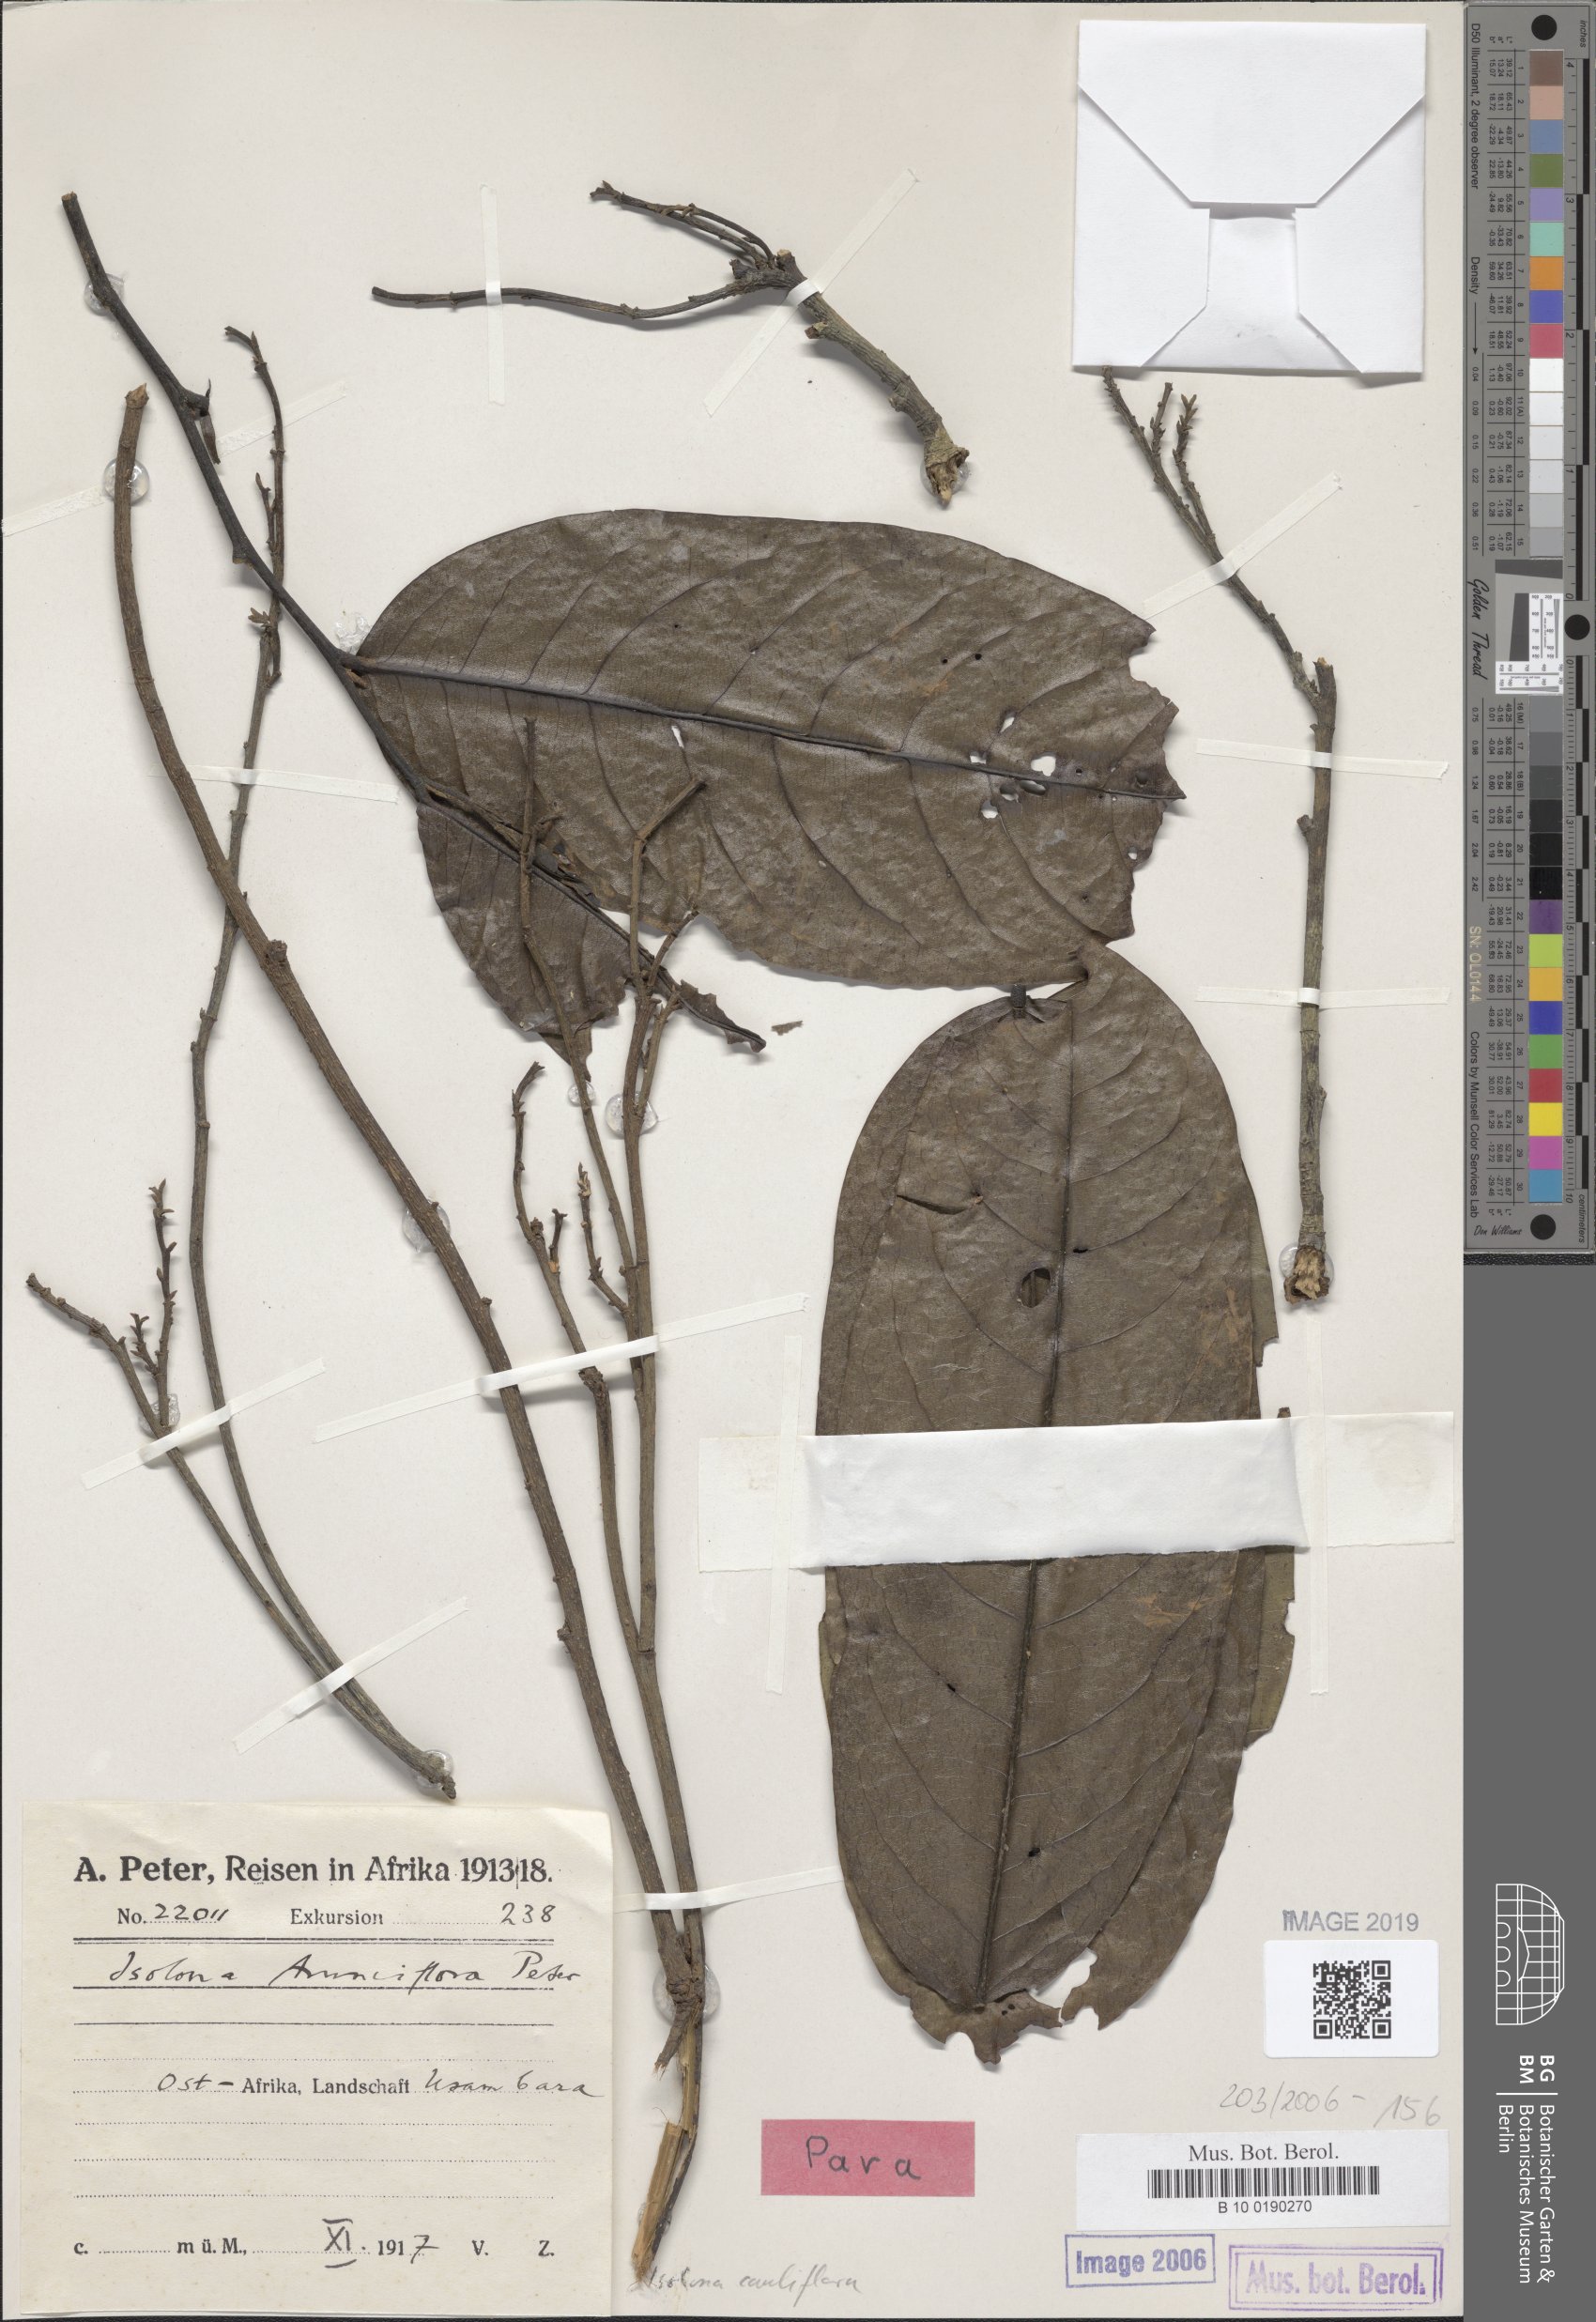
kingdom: Plantae
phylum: Tracheophyta
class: Magnoliopsida
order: Magnoliales
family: Annonaceae
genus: Isolona
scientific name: Isolona cauliflora
